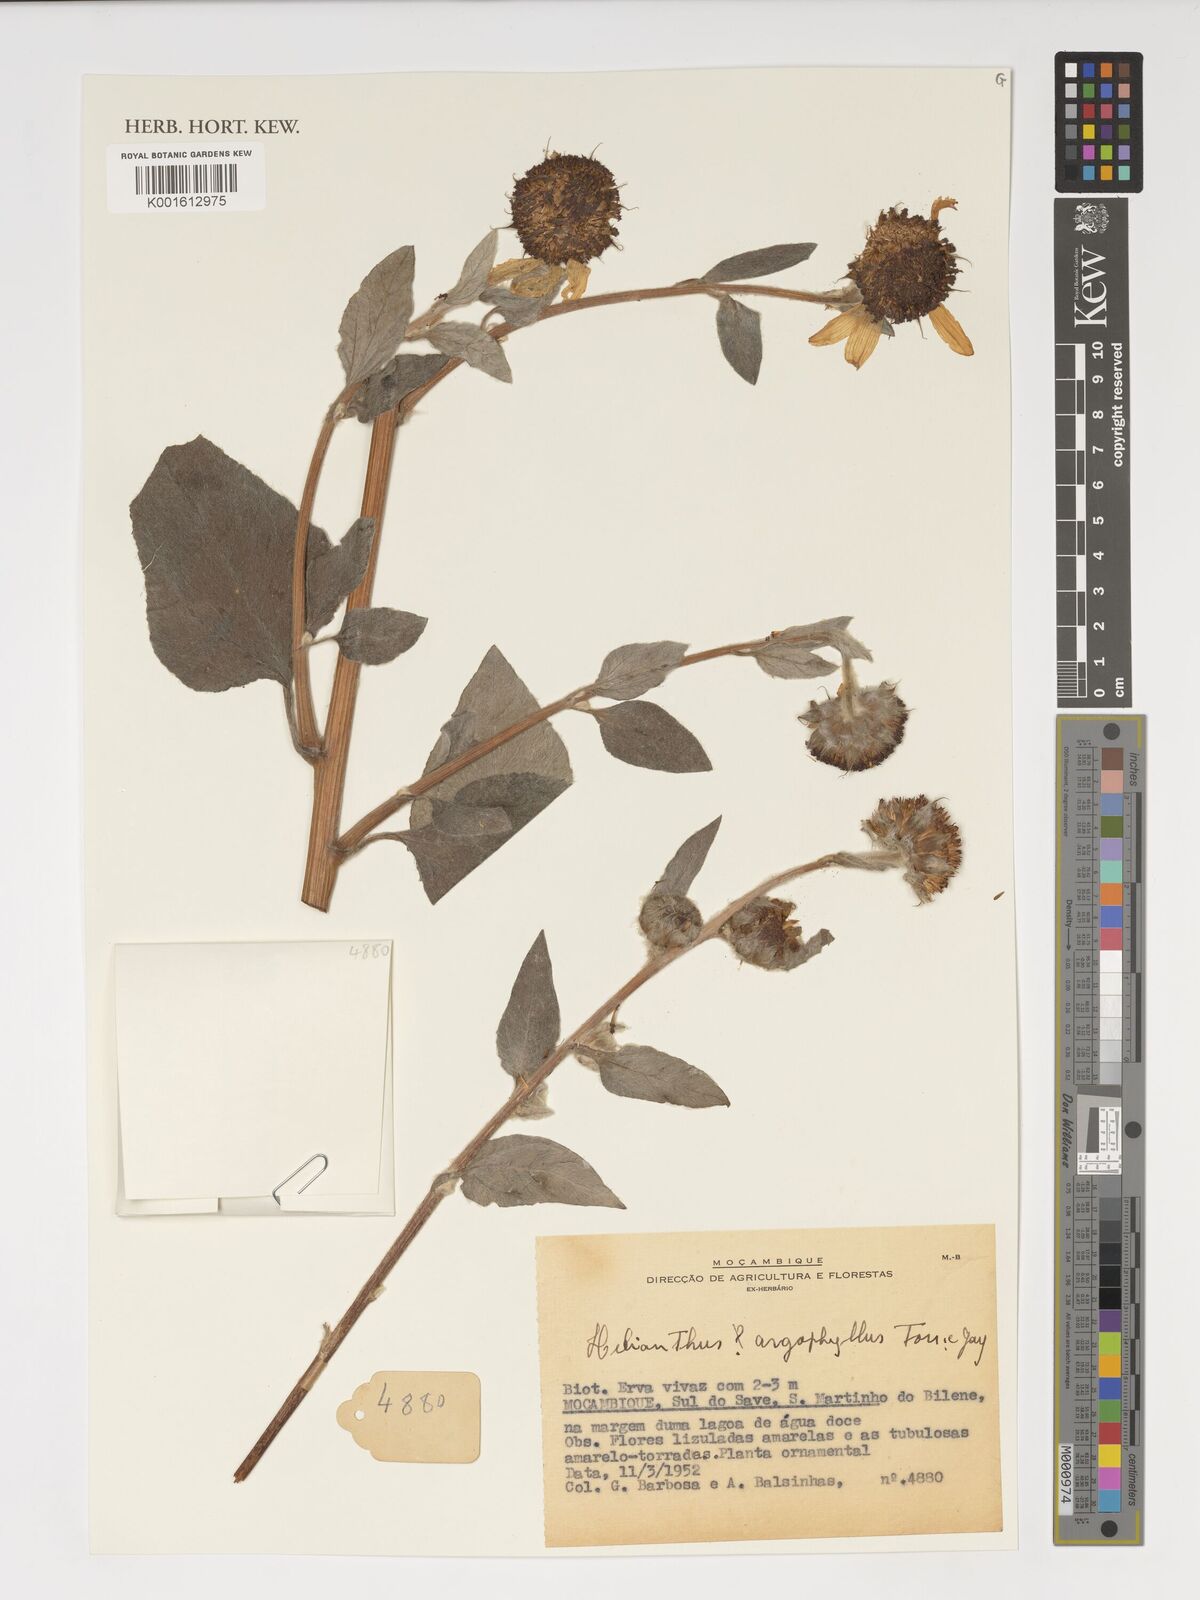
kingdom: Plantae
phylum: Tracheophyta
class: Magnoliopsida
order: Asterales
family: Asteraceae
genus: Helianthus
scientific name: Helianthus argophyllus
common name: Silverleaf sunflower
